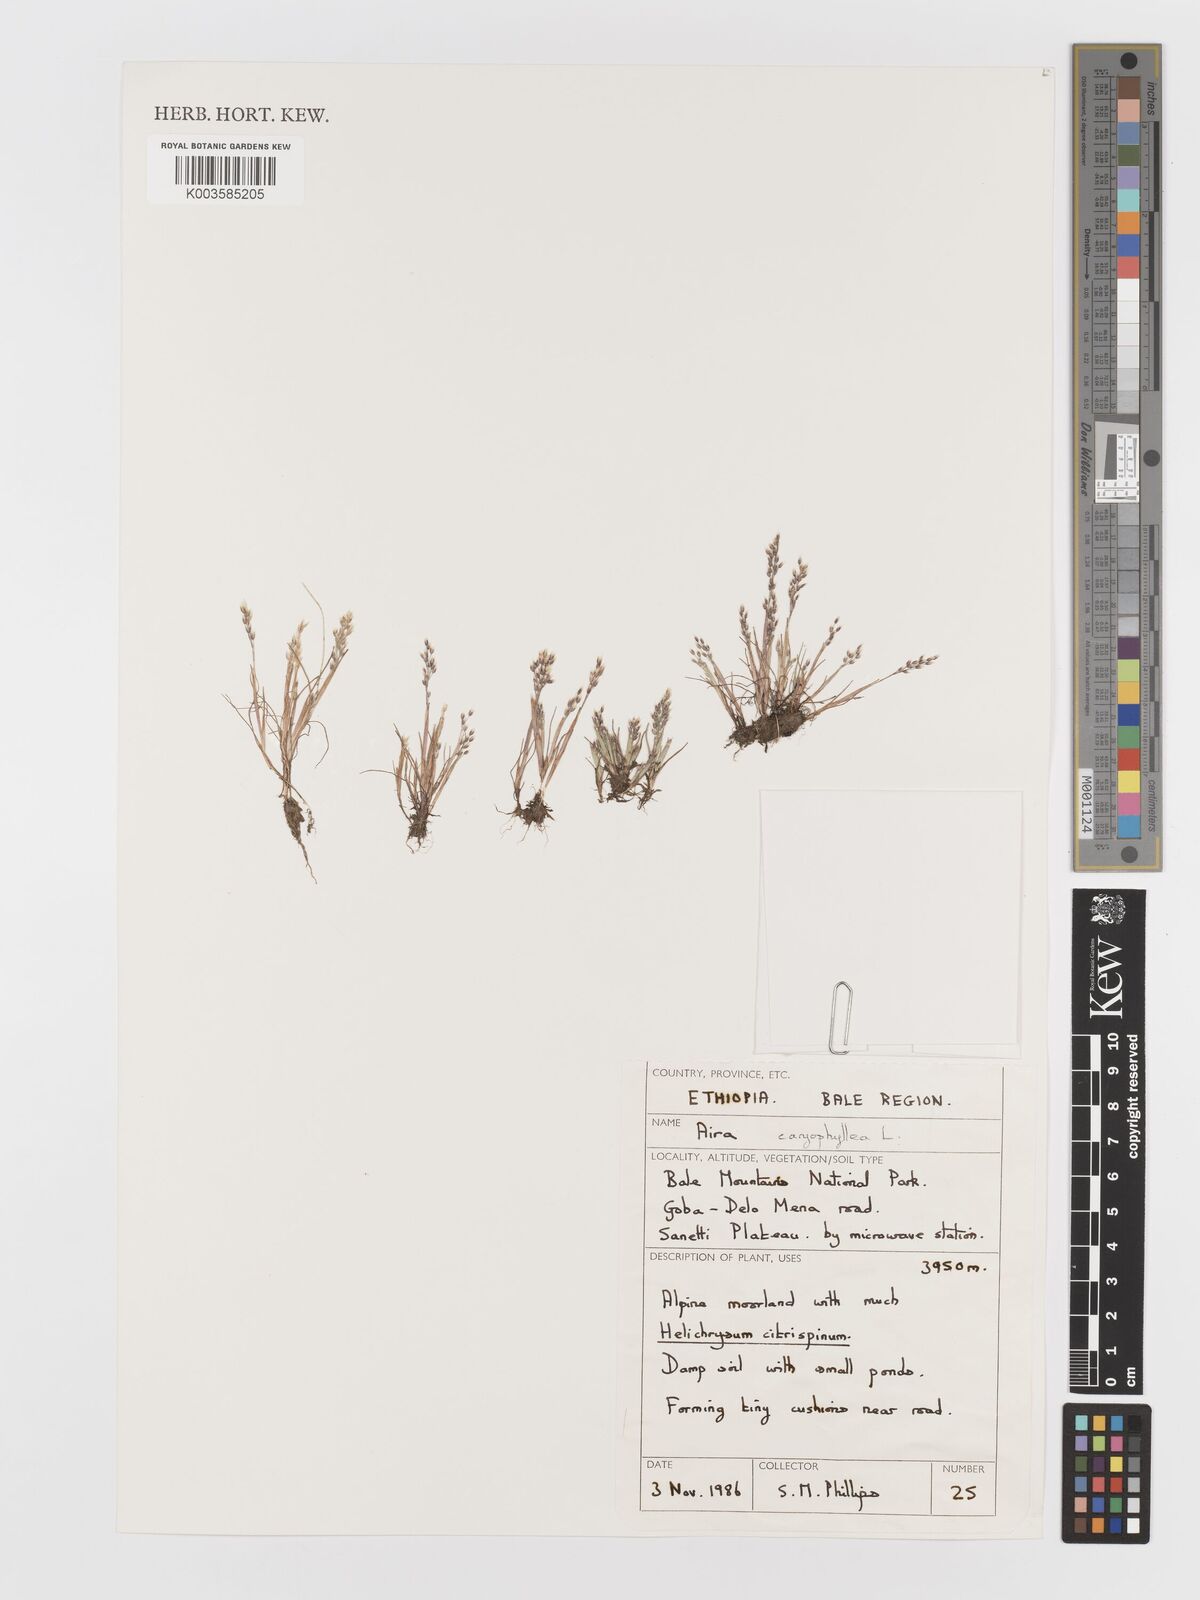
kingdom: Plantae
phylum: Tracheophyta
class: Liliopsida
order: Poales
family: Poaceae
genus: Aira
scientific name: Aira caryophyllea
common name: Silver hairgrass
